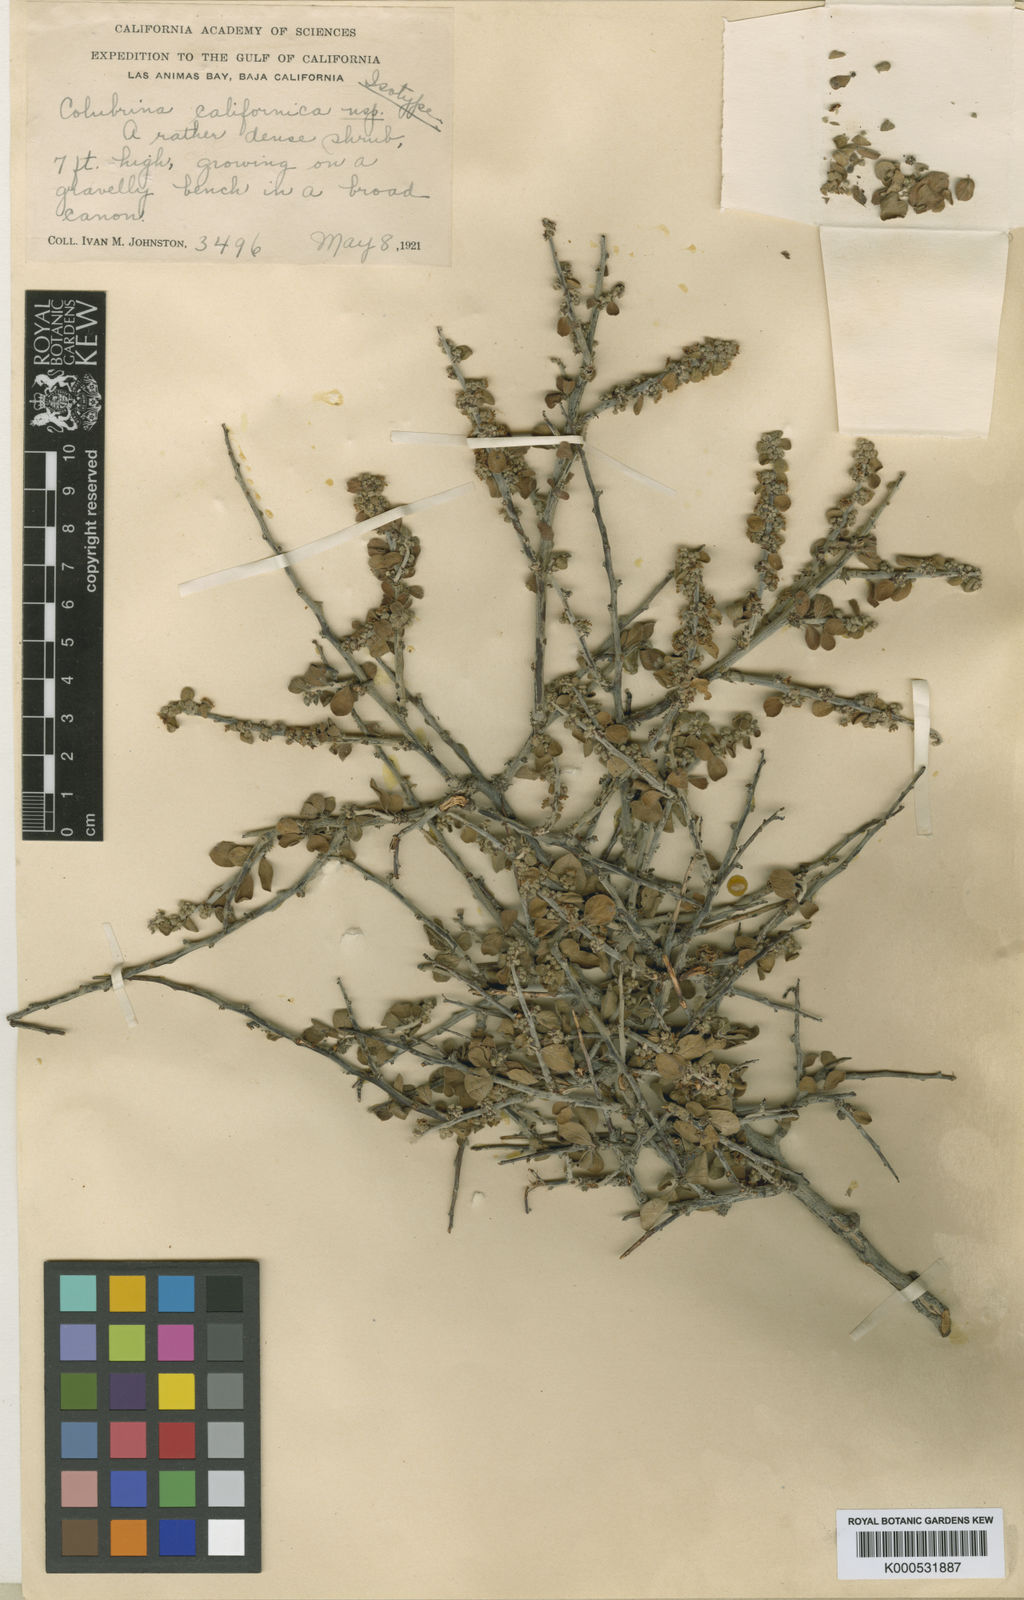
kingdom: Plantae
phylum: Tracheophyta
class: Magnoliopsida
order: Rosales
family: Rhamnaceae
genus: Colubrina
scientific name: Colubrina californica
